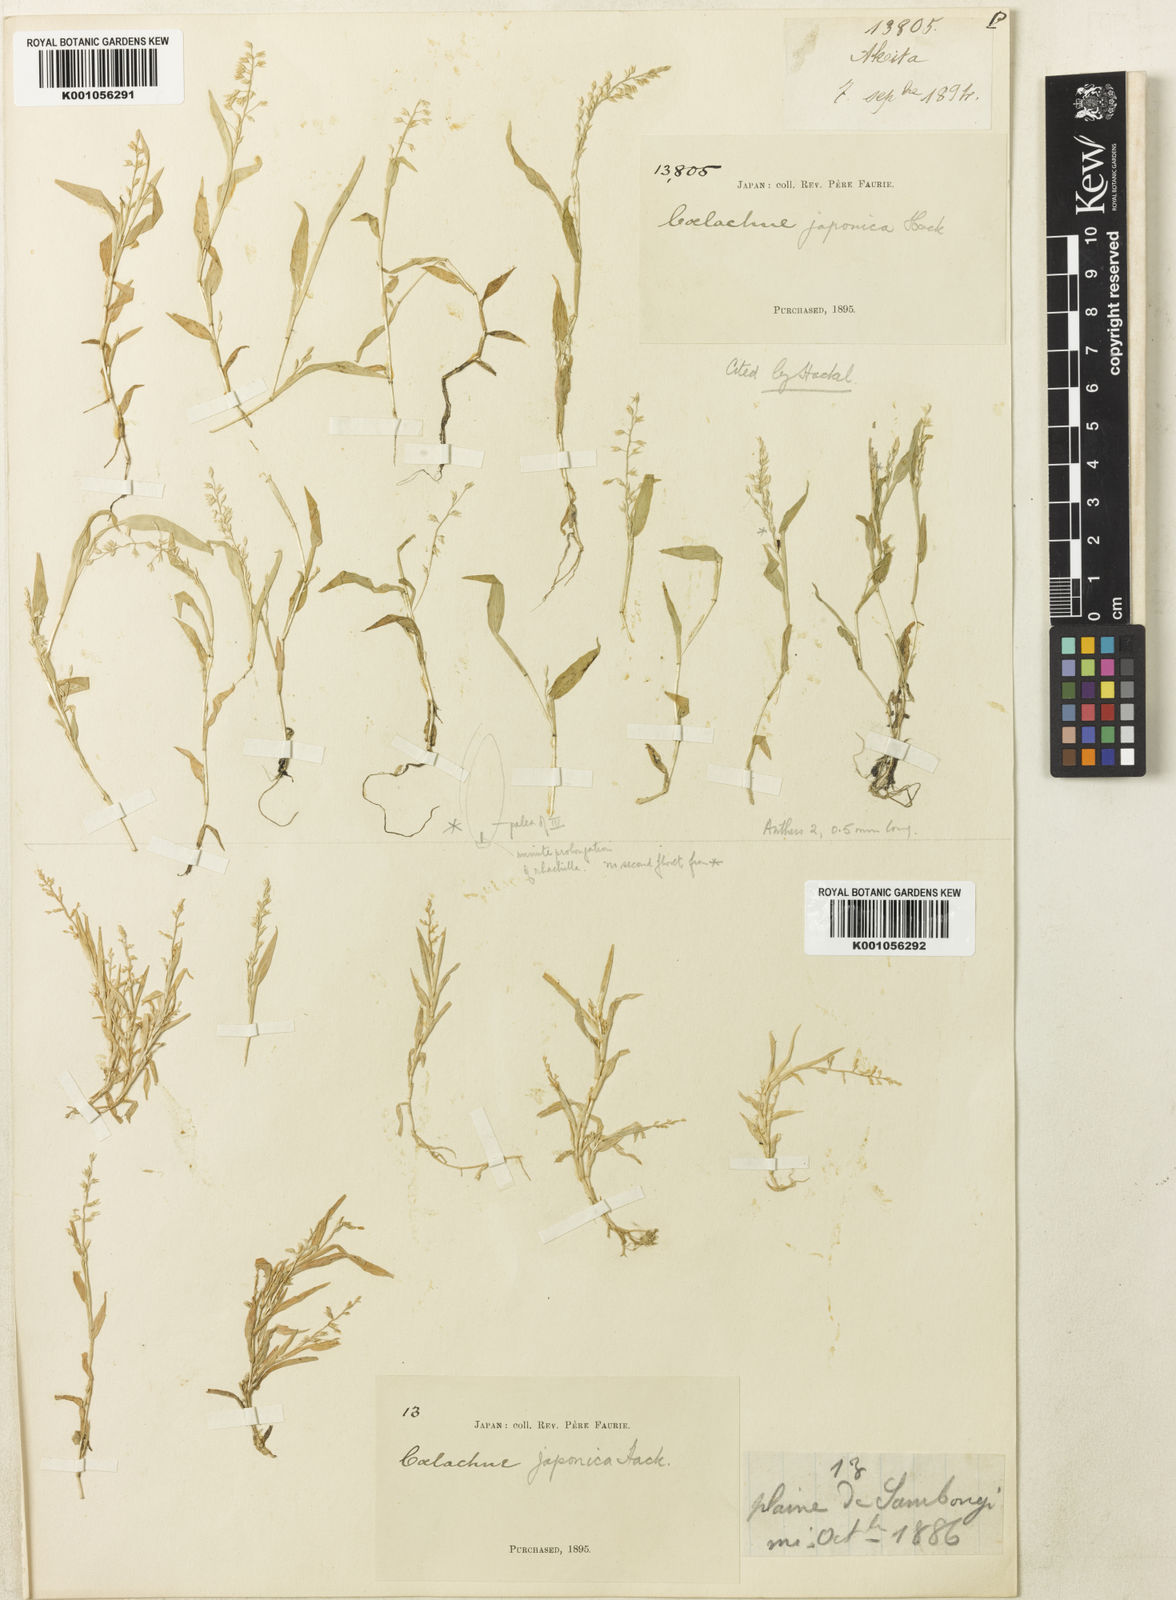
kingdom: Plantae
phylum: Tracheophyta
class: Liliopsida
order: Poales
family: Poaceae
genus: Coelachne
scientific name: Coelachne japonica
